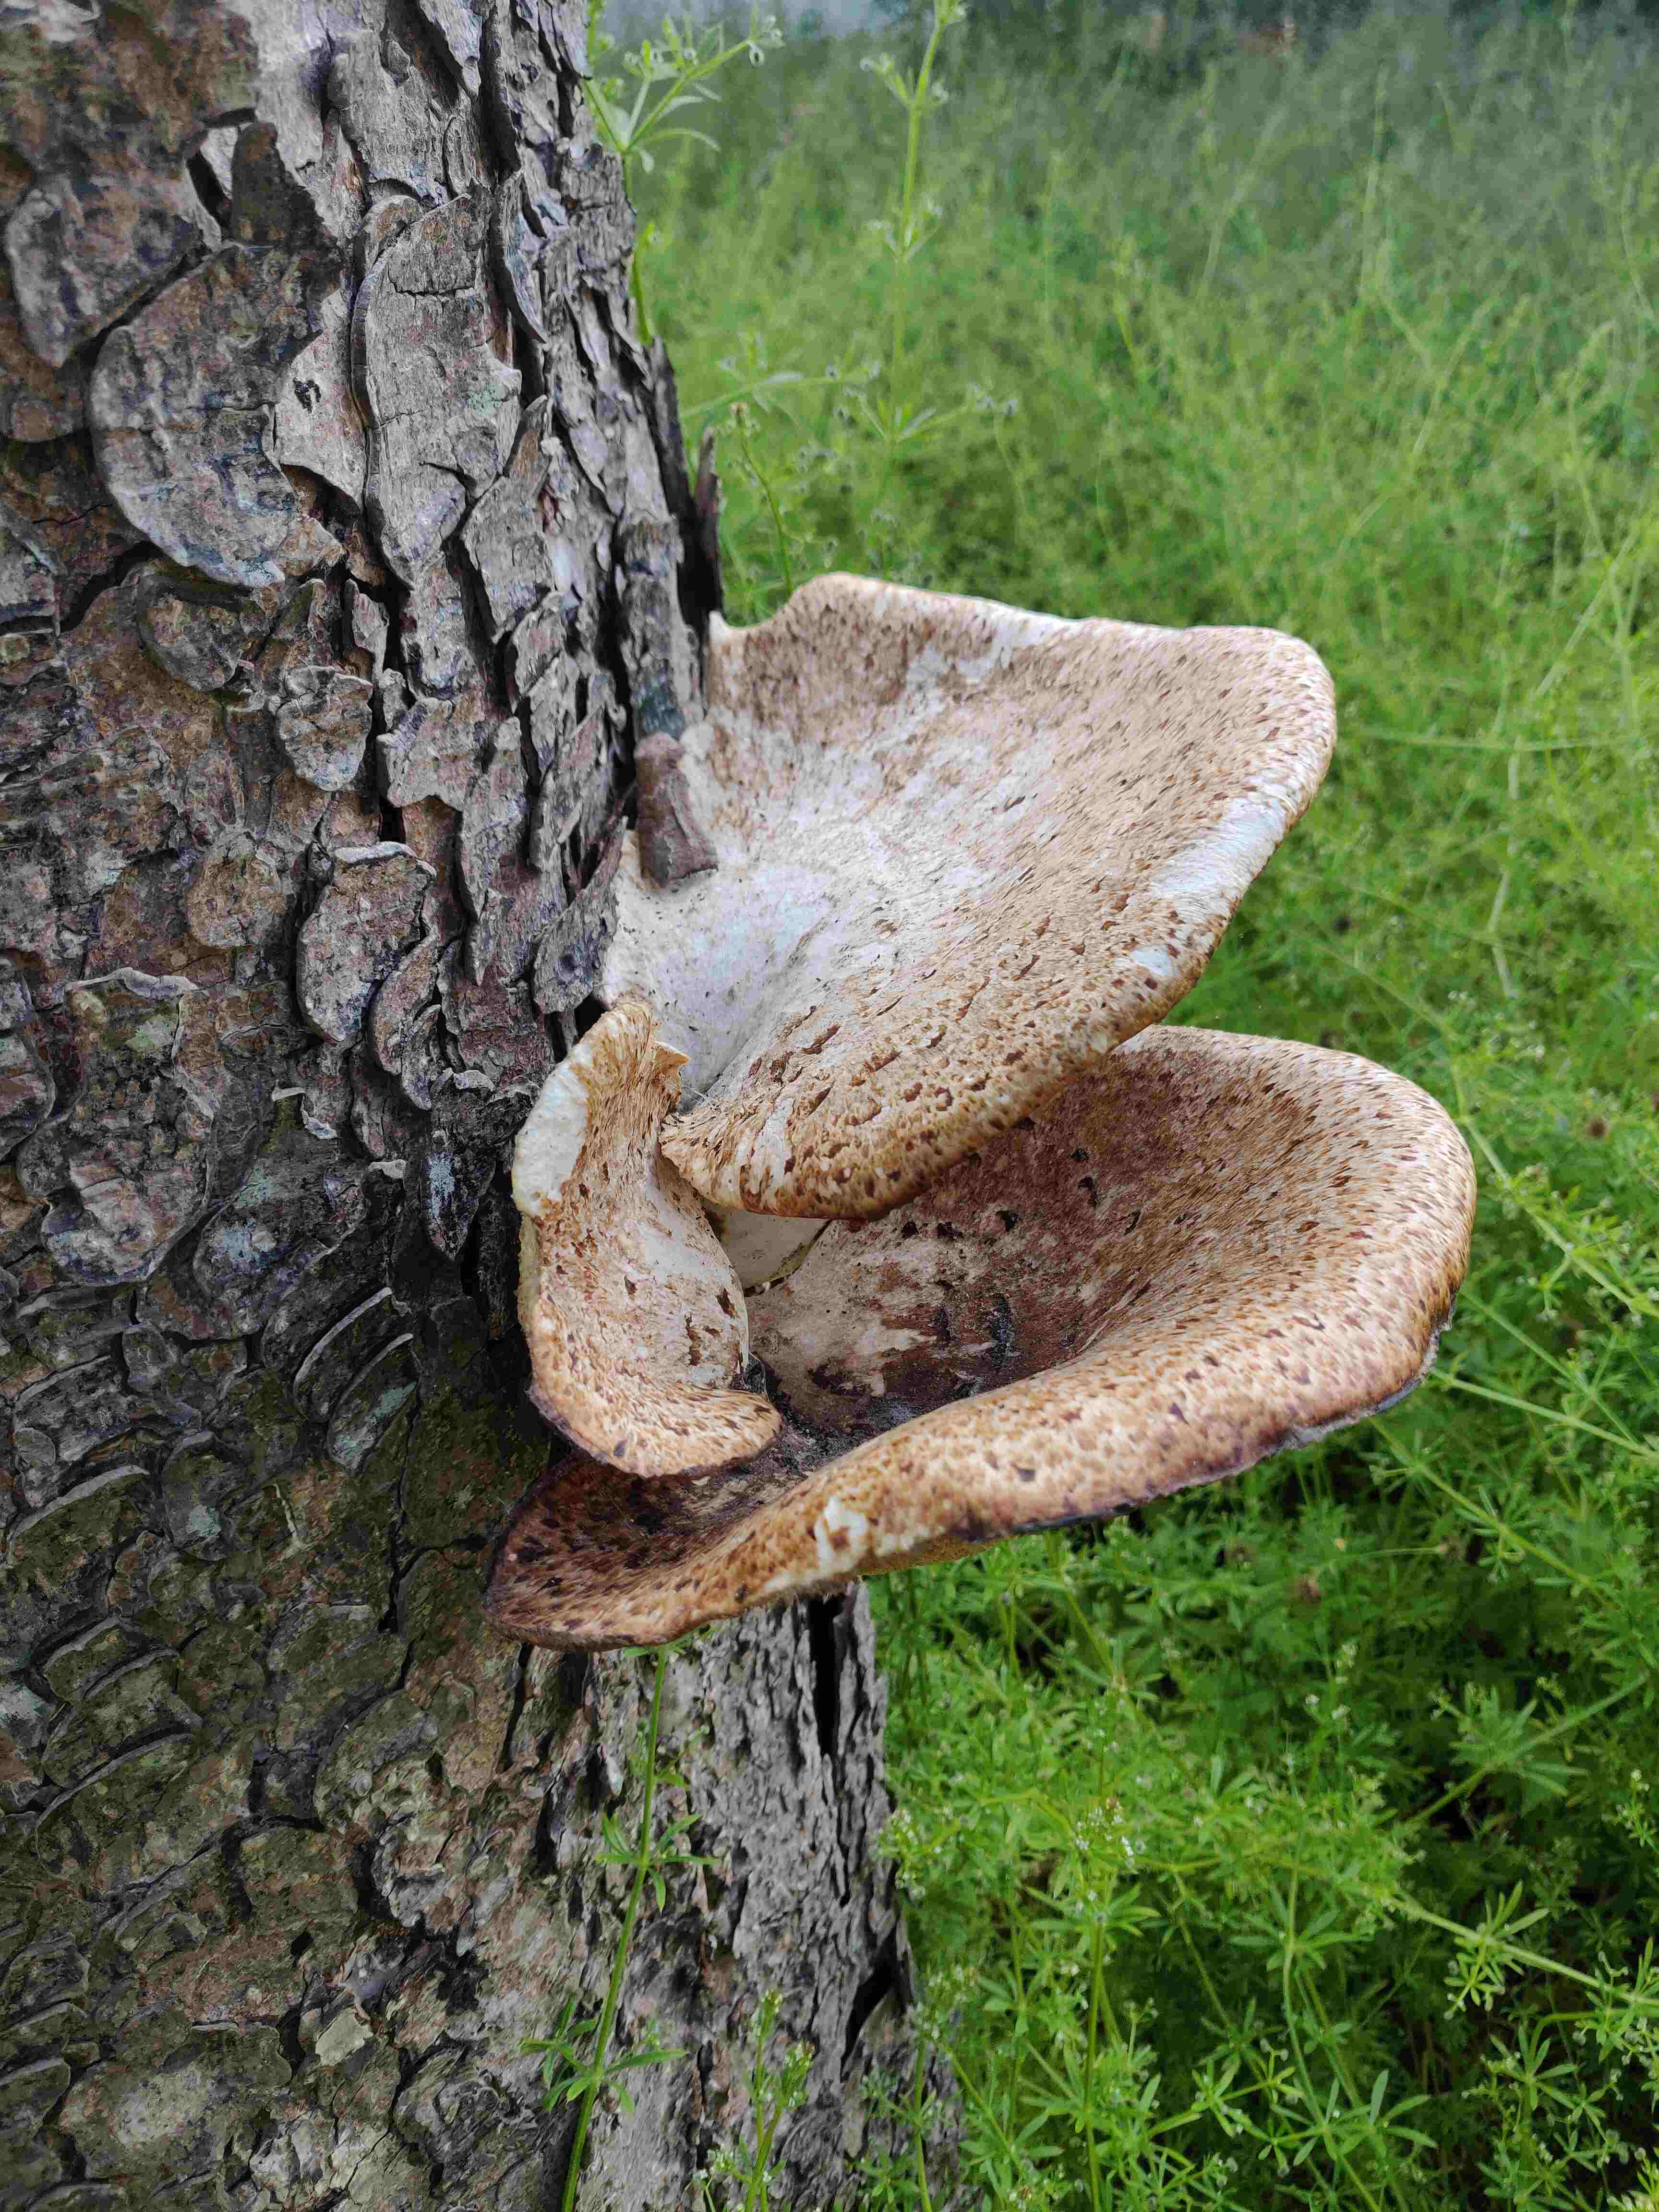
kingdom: Fungi
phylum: Basidiomycota
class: Agaricomycetes
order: Polyporales
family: Polyporaceae
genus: Cerioporus
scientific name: Cerioporus squamosus
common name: skællet stilkporesvamp
